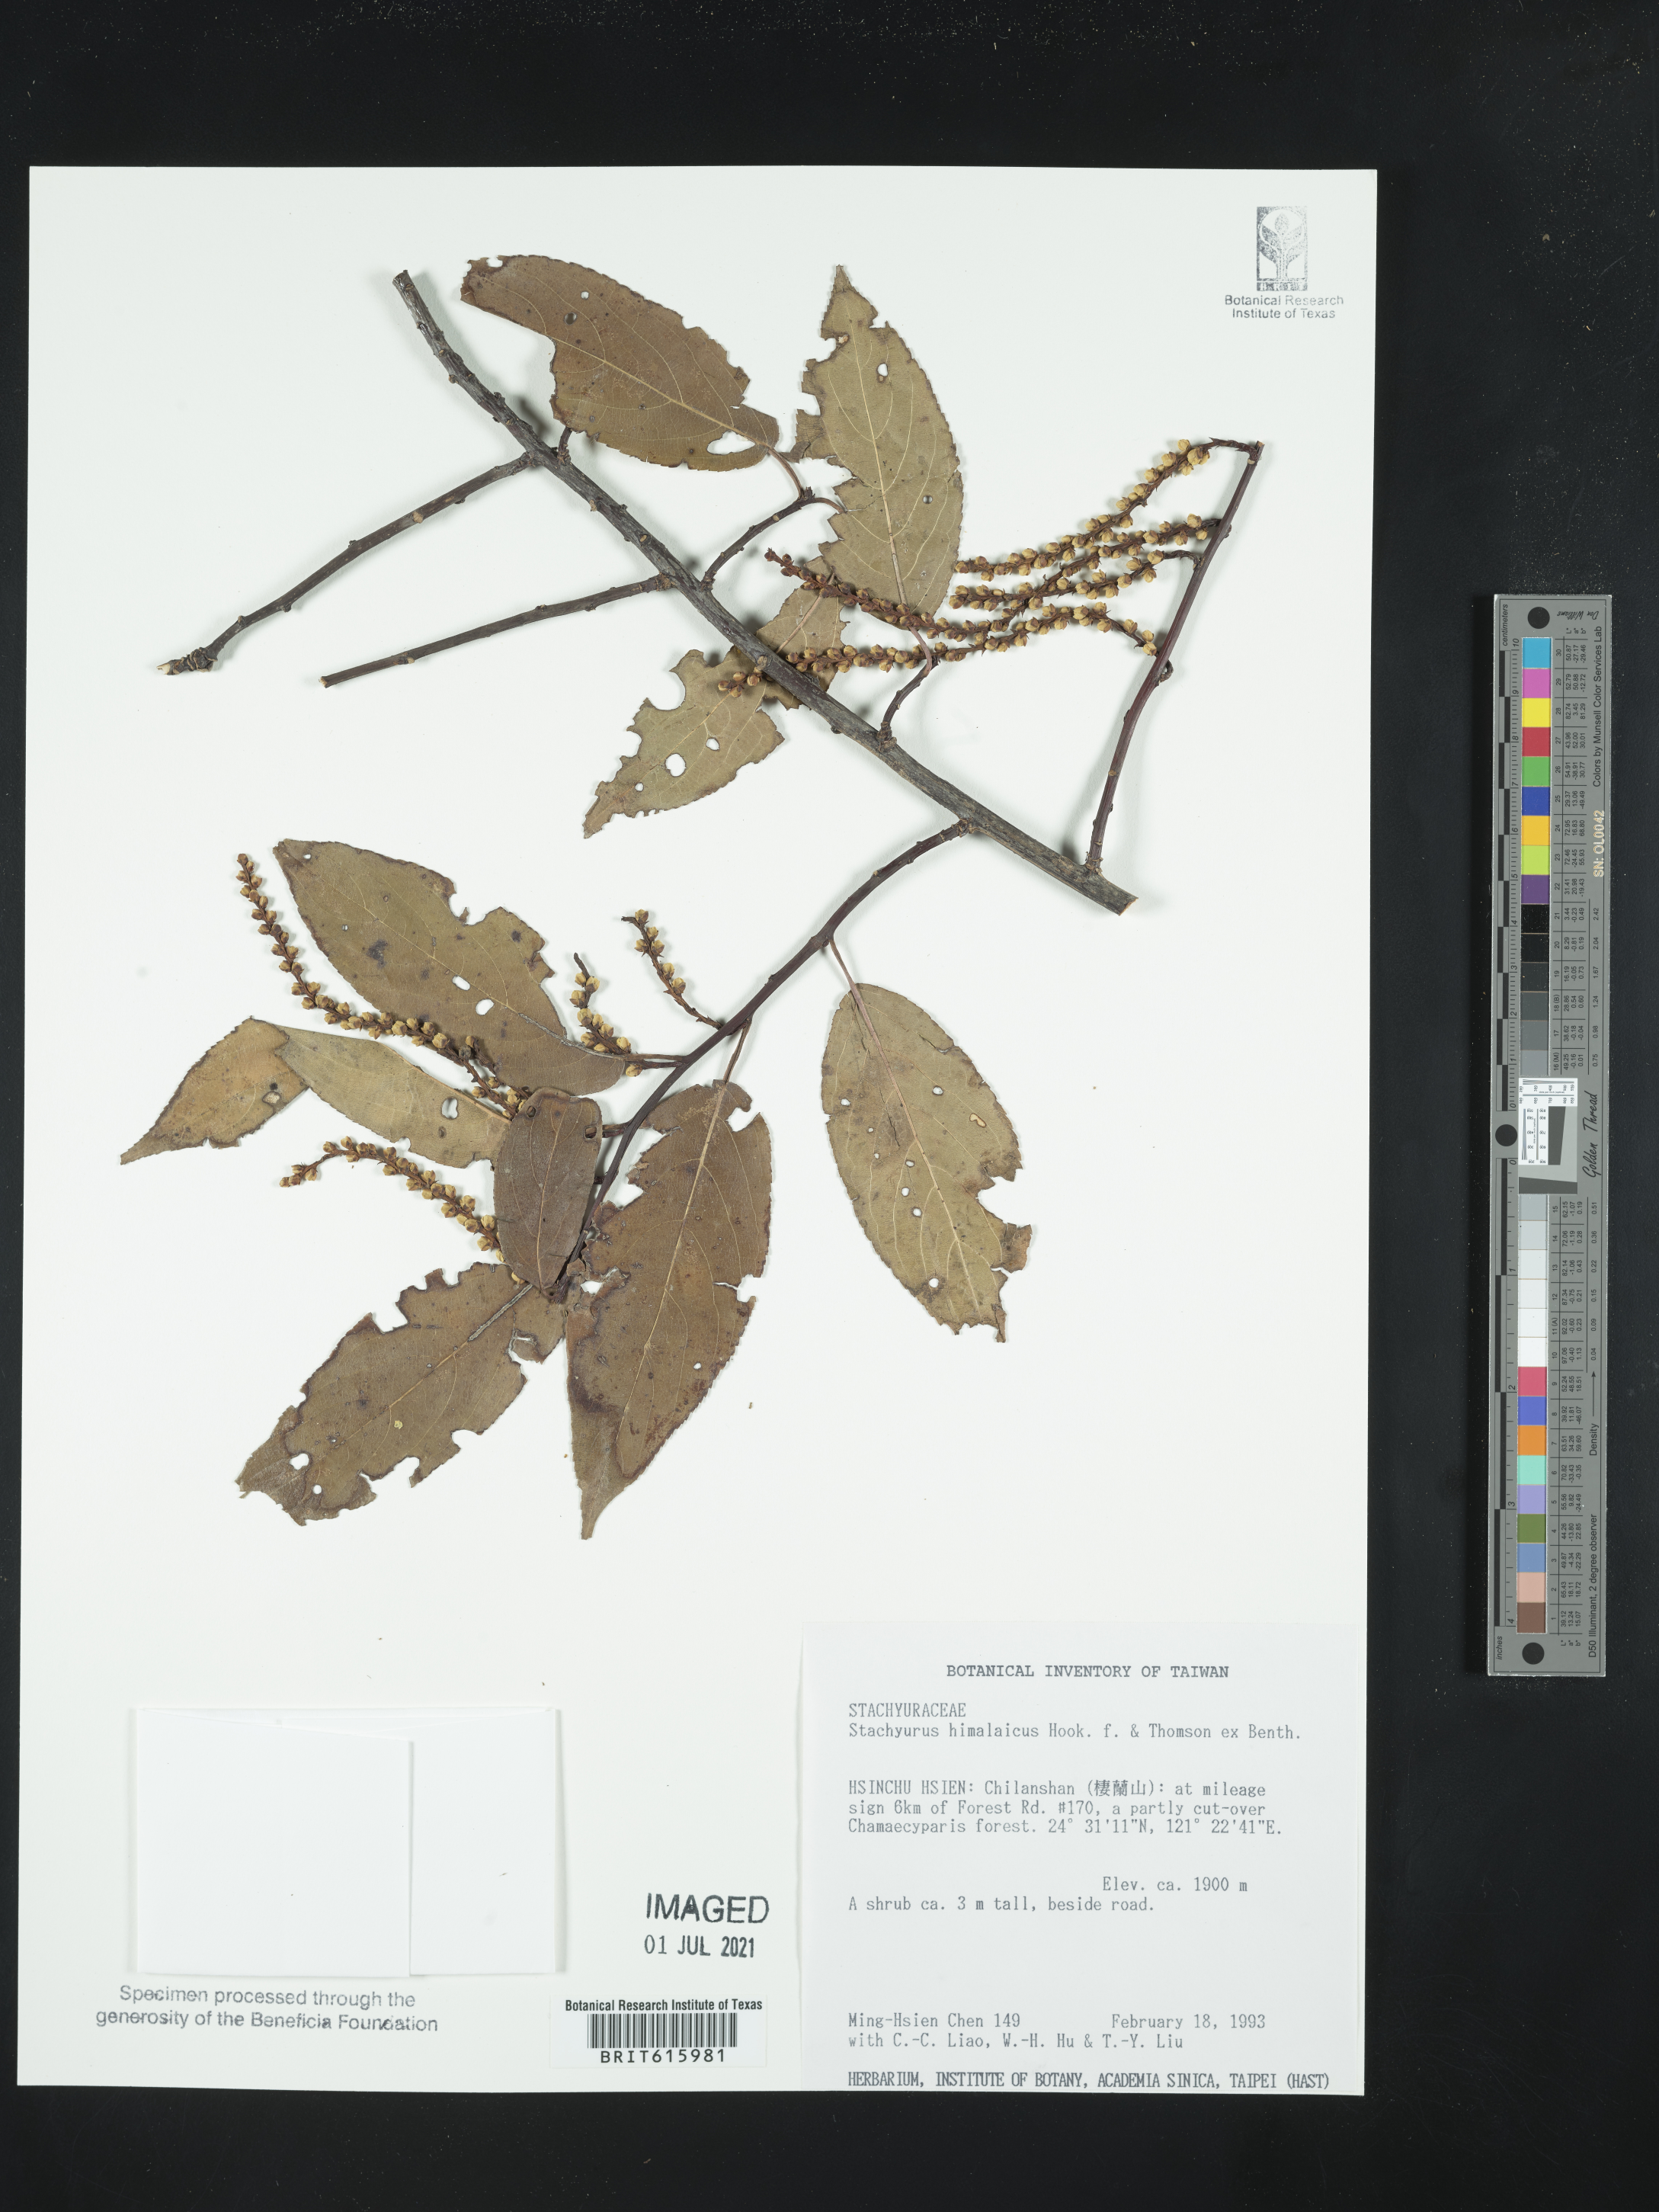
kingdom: Plantae
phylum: Tracheophyta
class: Magnoliopsida
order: Crossosomatales
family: Stachyuraceae
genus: Stachyurus
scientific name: Stachyurus himalaicus
